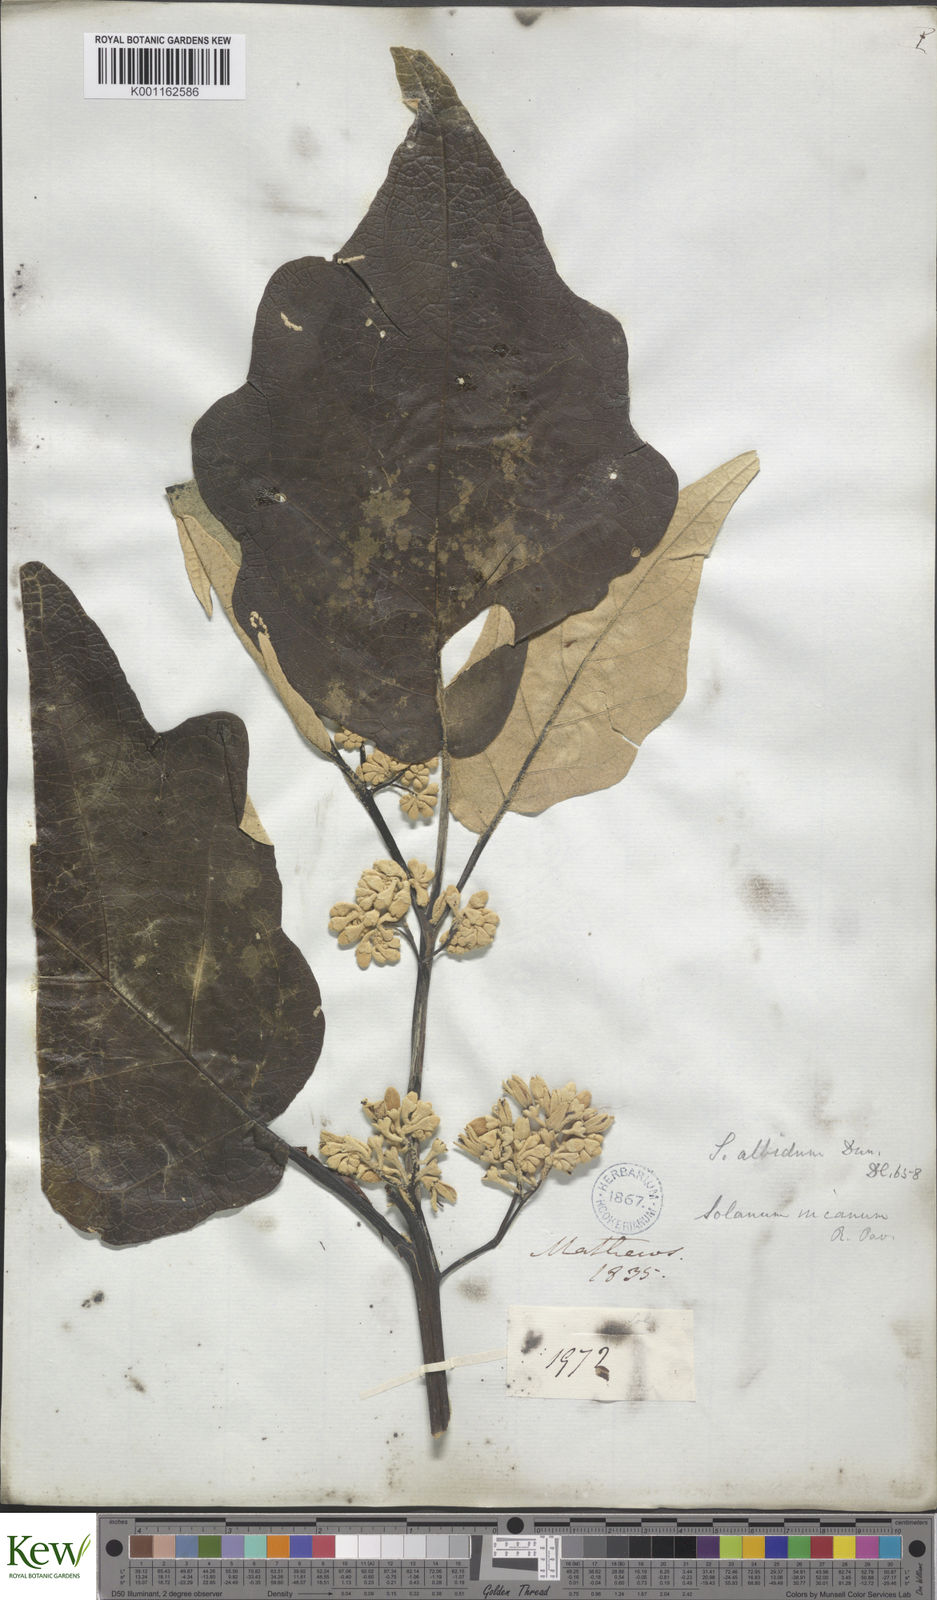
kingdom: Plantae
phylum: Tracheophyta
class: Magnoliopsida
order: Solanales
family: Solanaceae
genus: Solanum
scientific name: Solanum albidum
